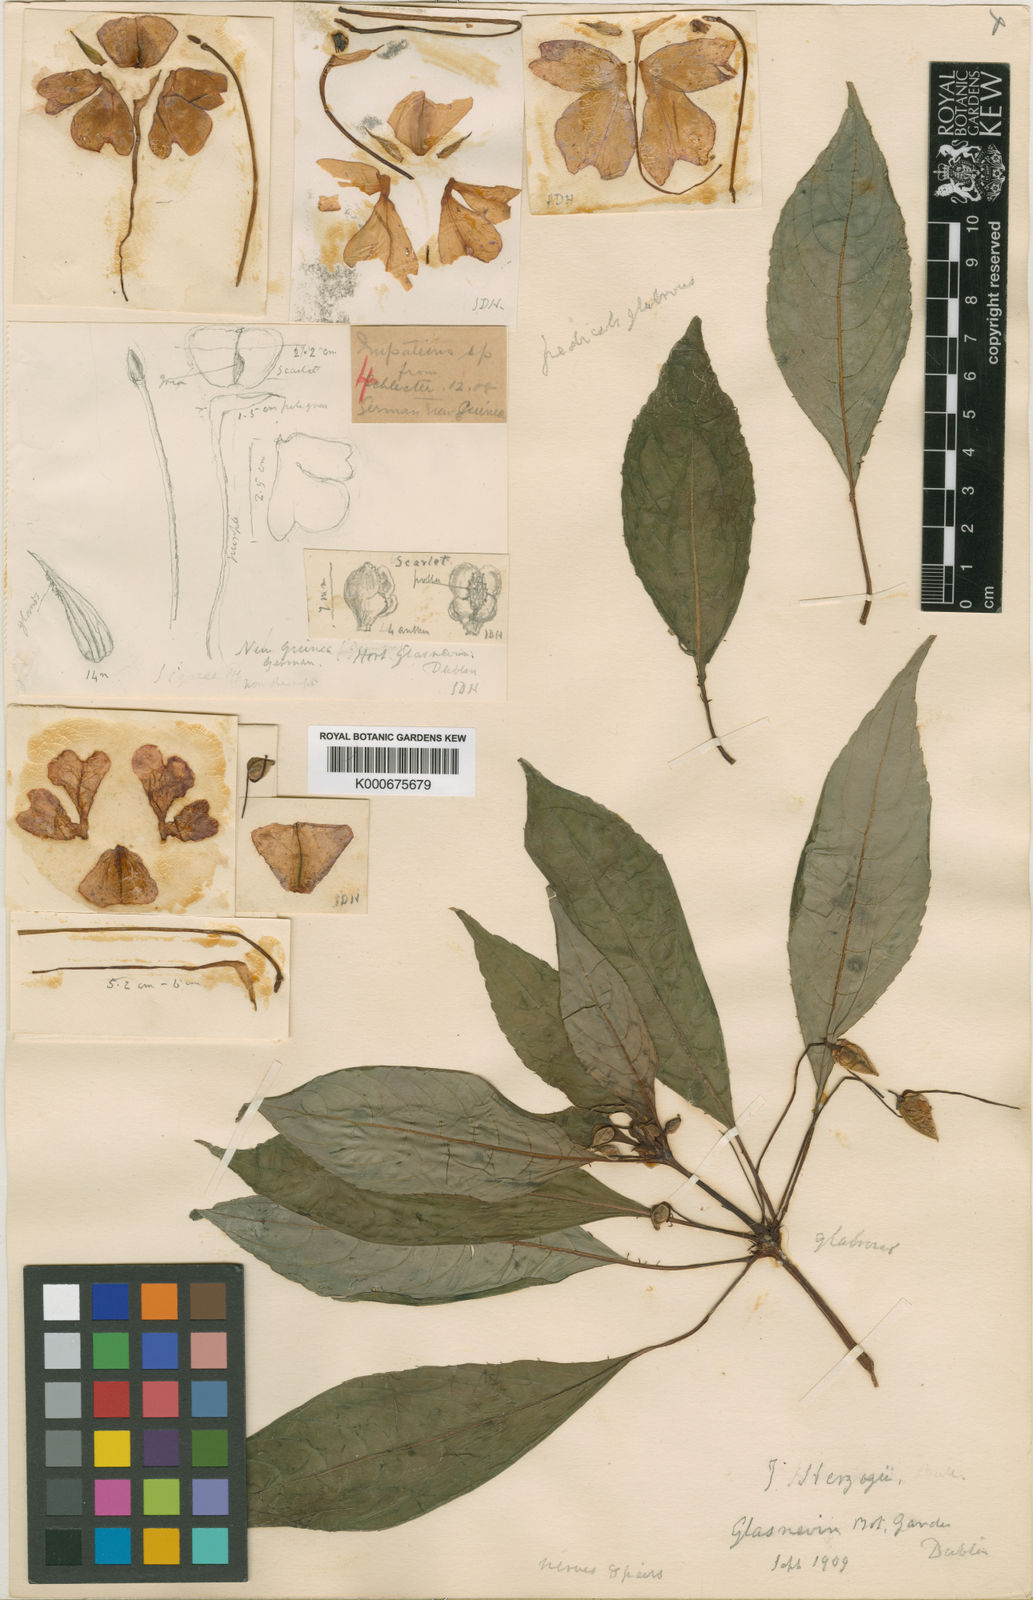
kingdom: Plantae
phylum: Tracheophyta
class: Magnoliopsida
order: Ericales
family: Balsaminaceae
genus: Impatiens
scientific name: Impatiens hawkeri
